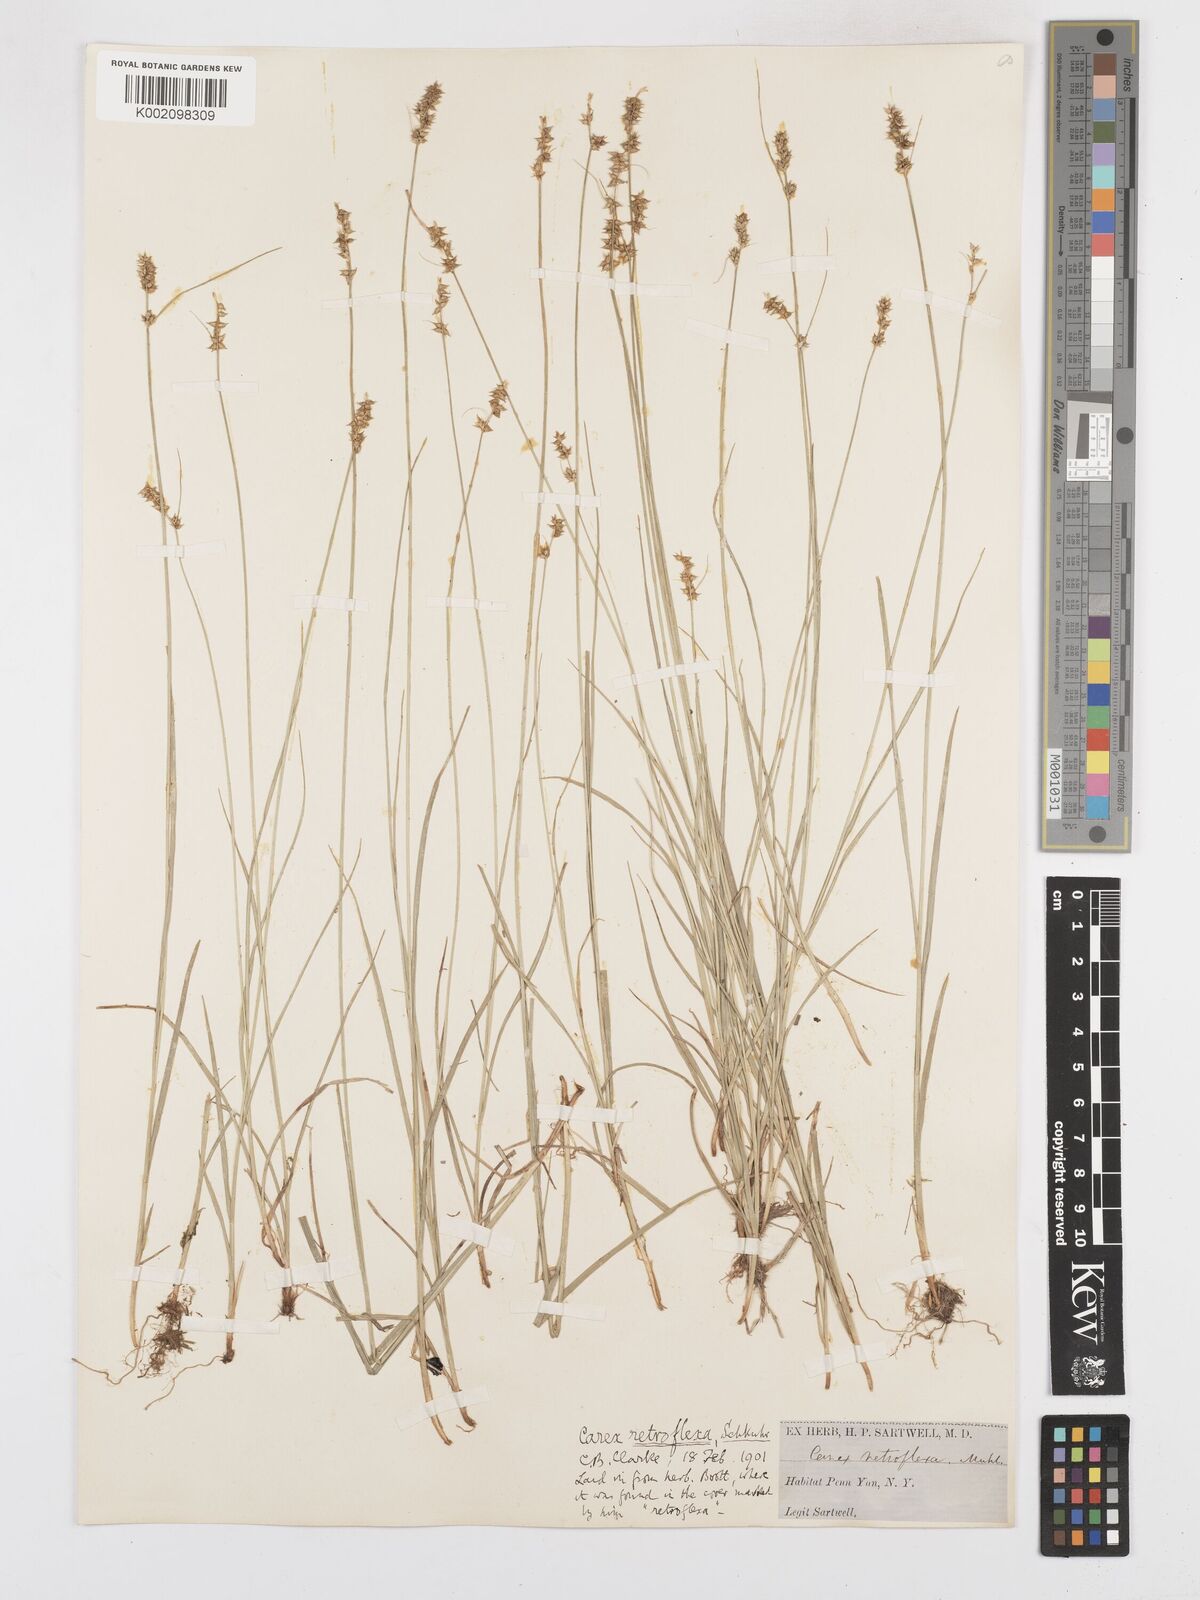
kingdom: Plantae
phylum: Tracheophyta
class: Liliopsida
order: Poales
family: Cyperaceae
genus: Carex
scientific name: Carex retroflexa
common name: Reflexed sedge
